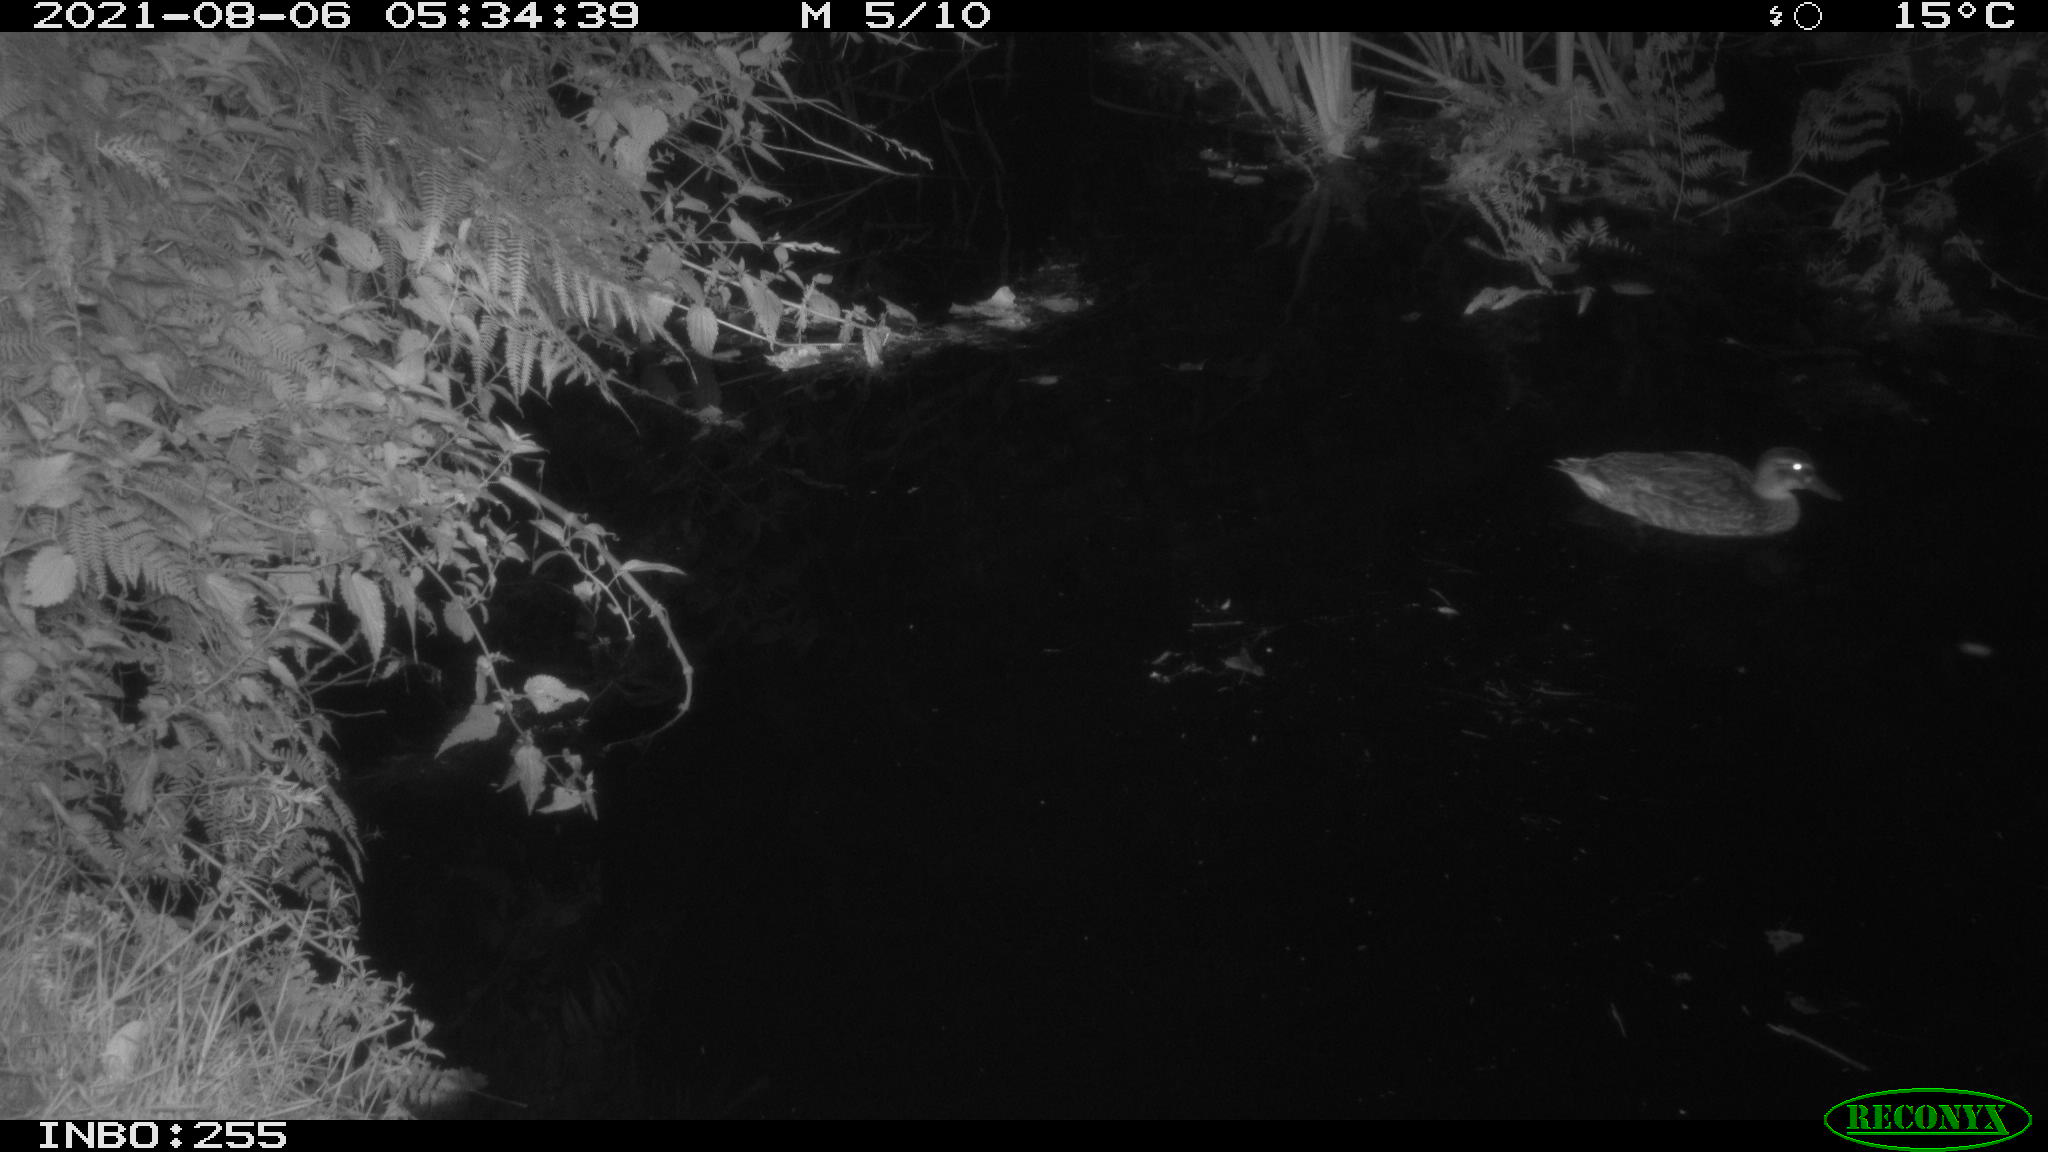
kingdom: Animalia
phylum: Chordata
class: Aves
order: Anseriformes
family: Anatidae
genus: Anas
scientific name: Anas platyrhynchos
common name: Mallard
